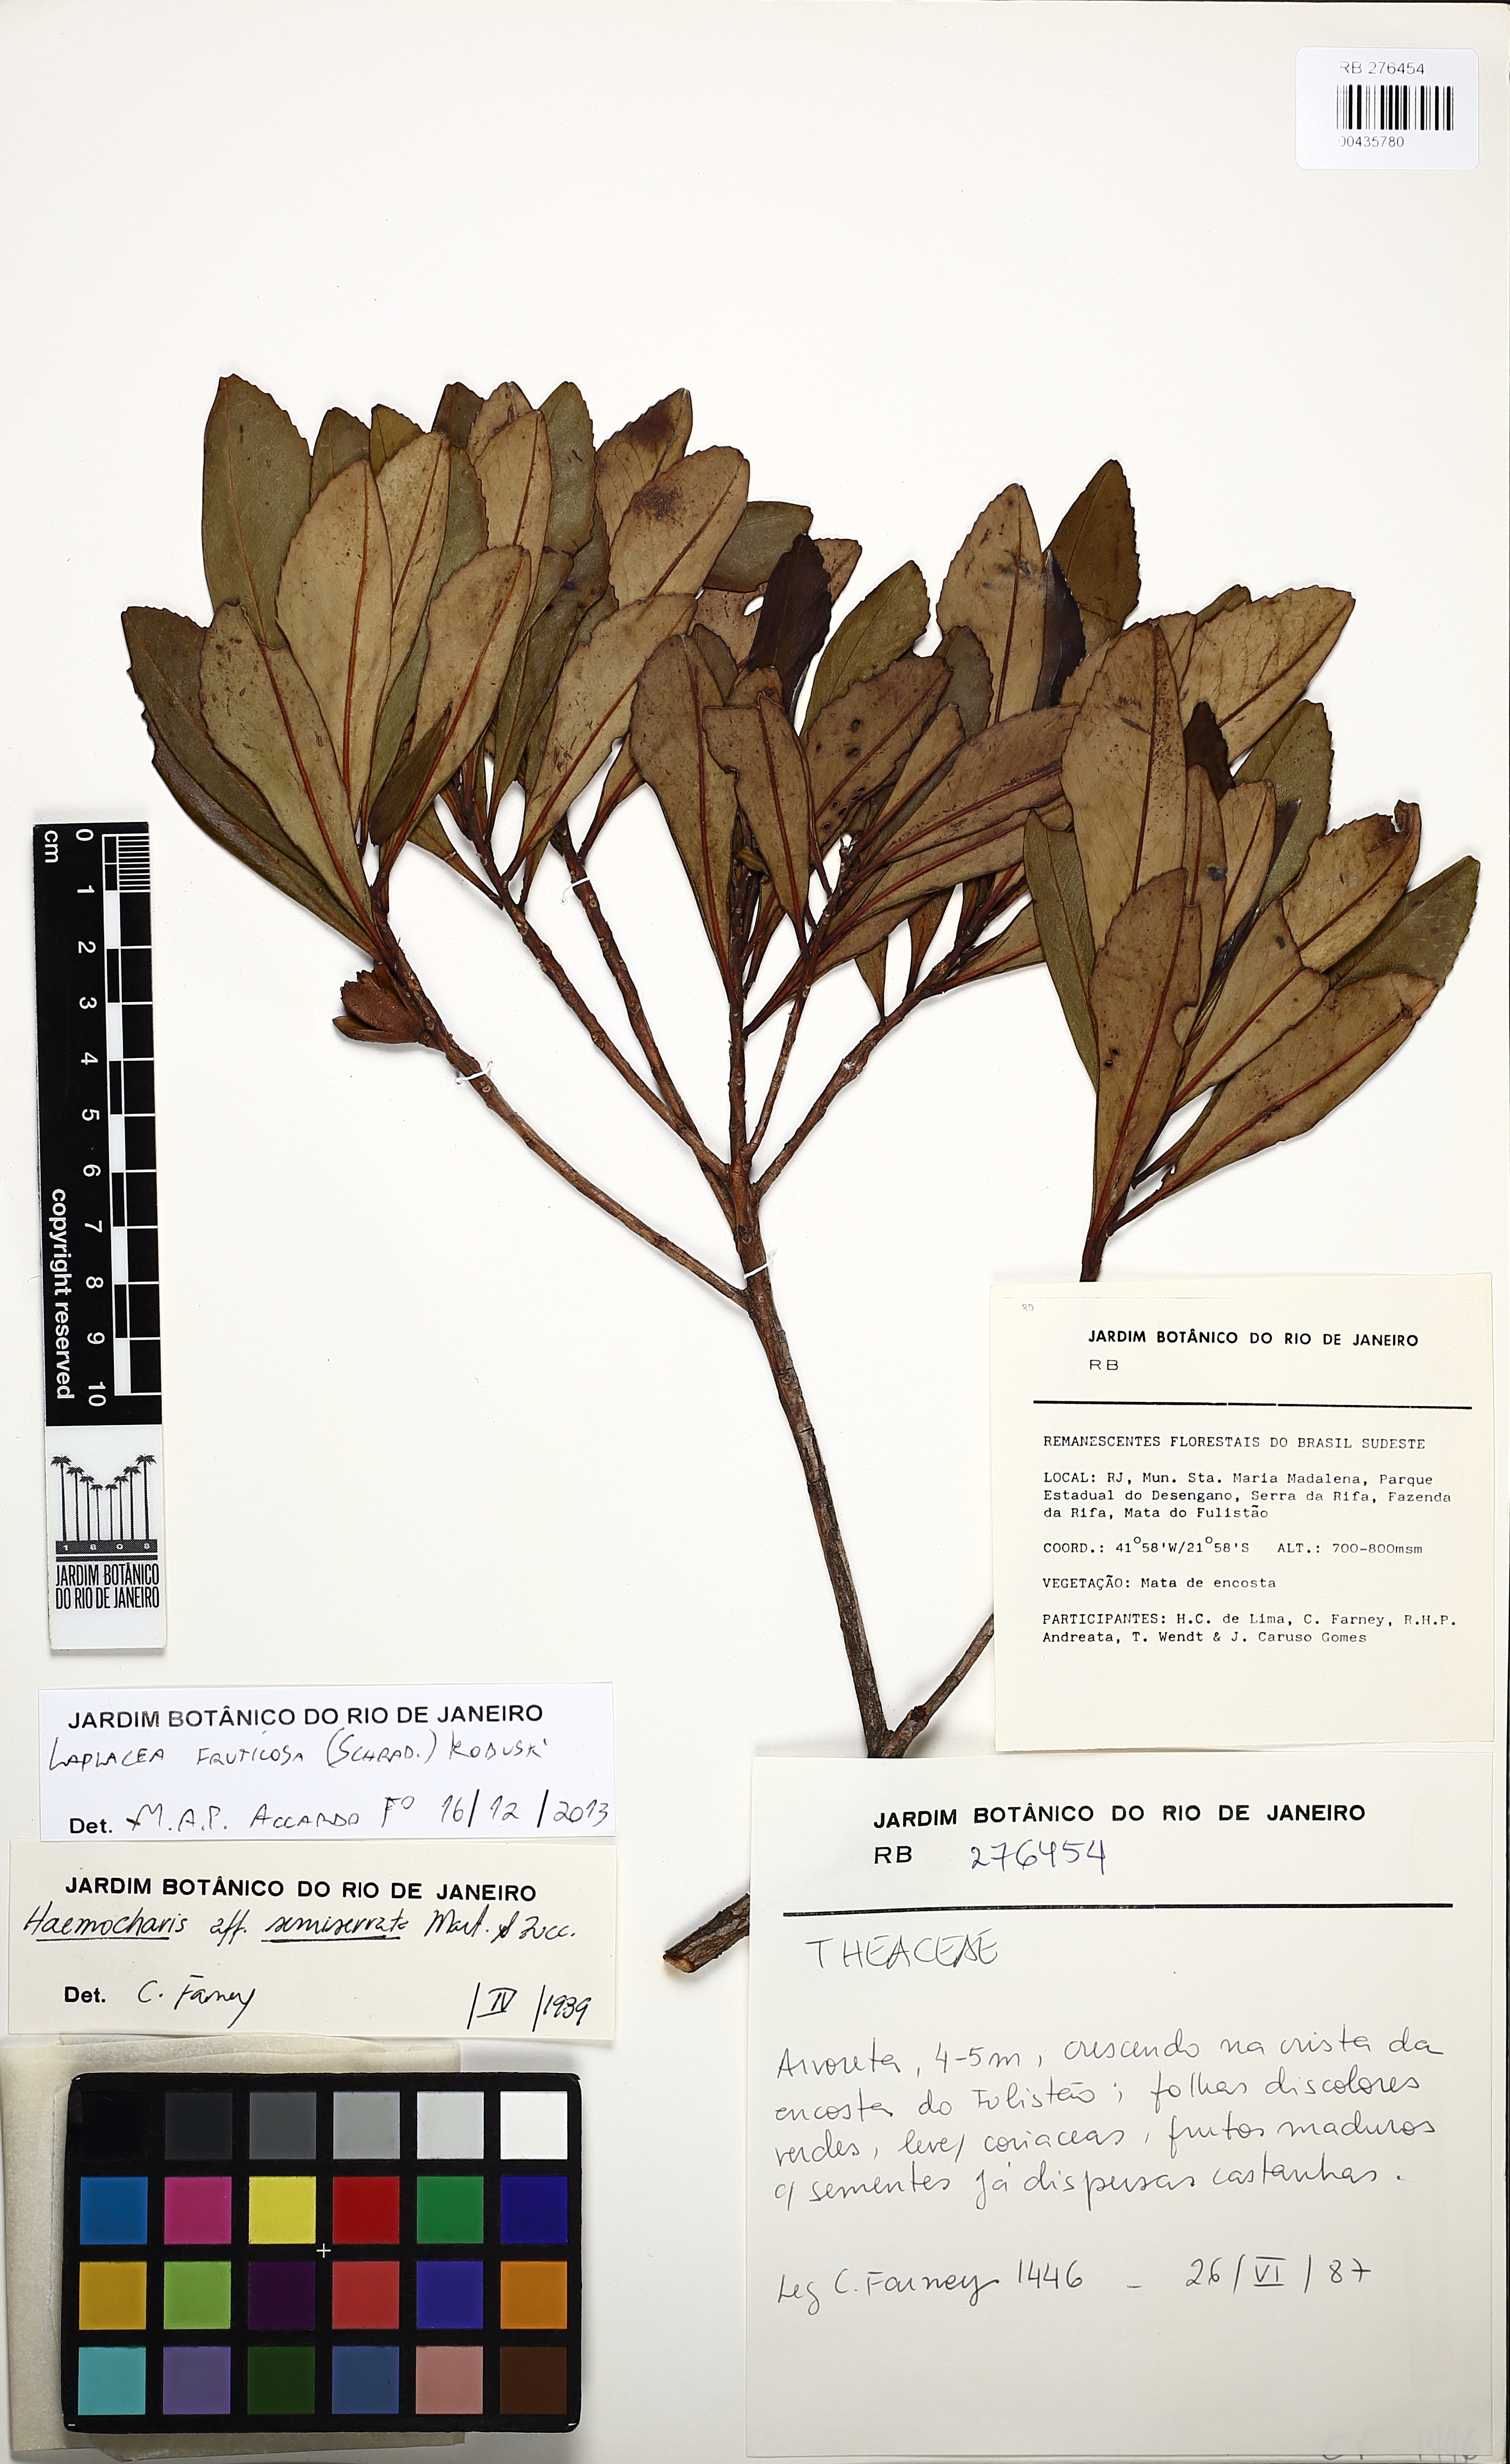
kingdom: Plantae
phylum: Tracheophyta
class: Magnoliopsida
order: Ericales
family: Theaceae
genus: Gordonia
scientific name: Gordonia fruticosa
